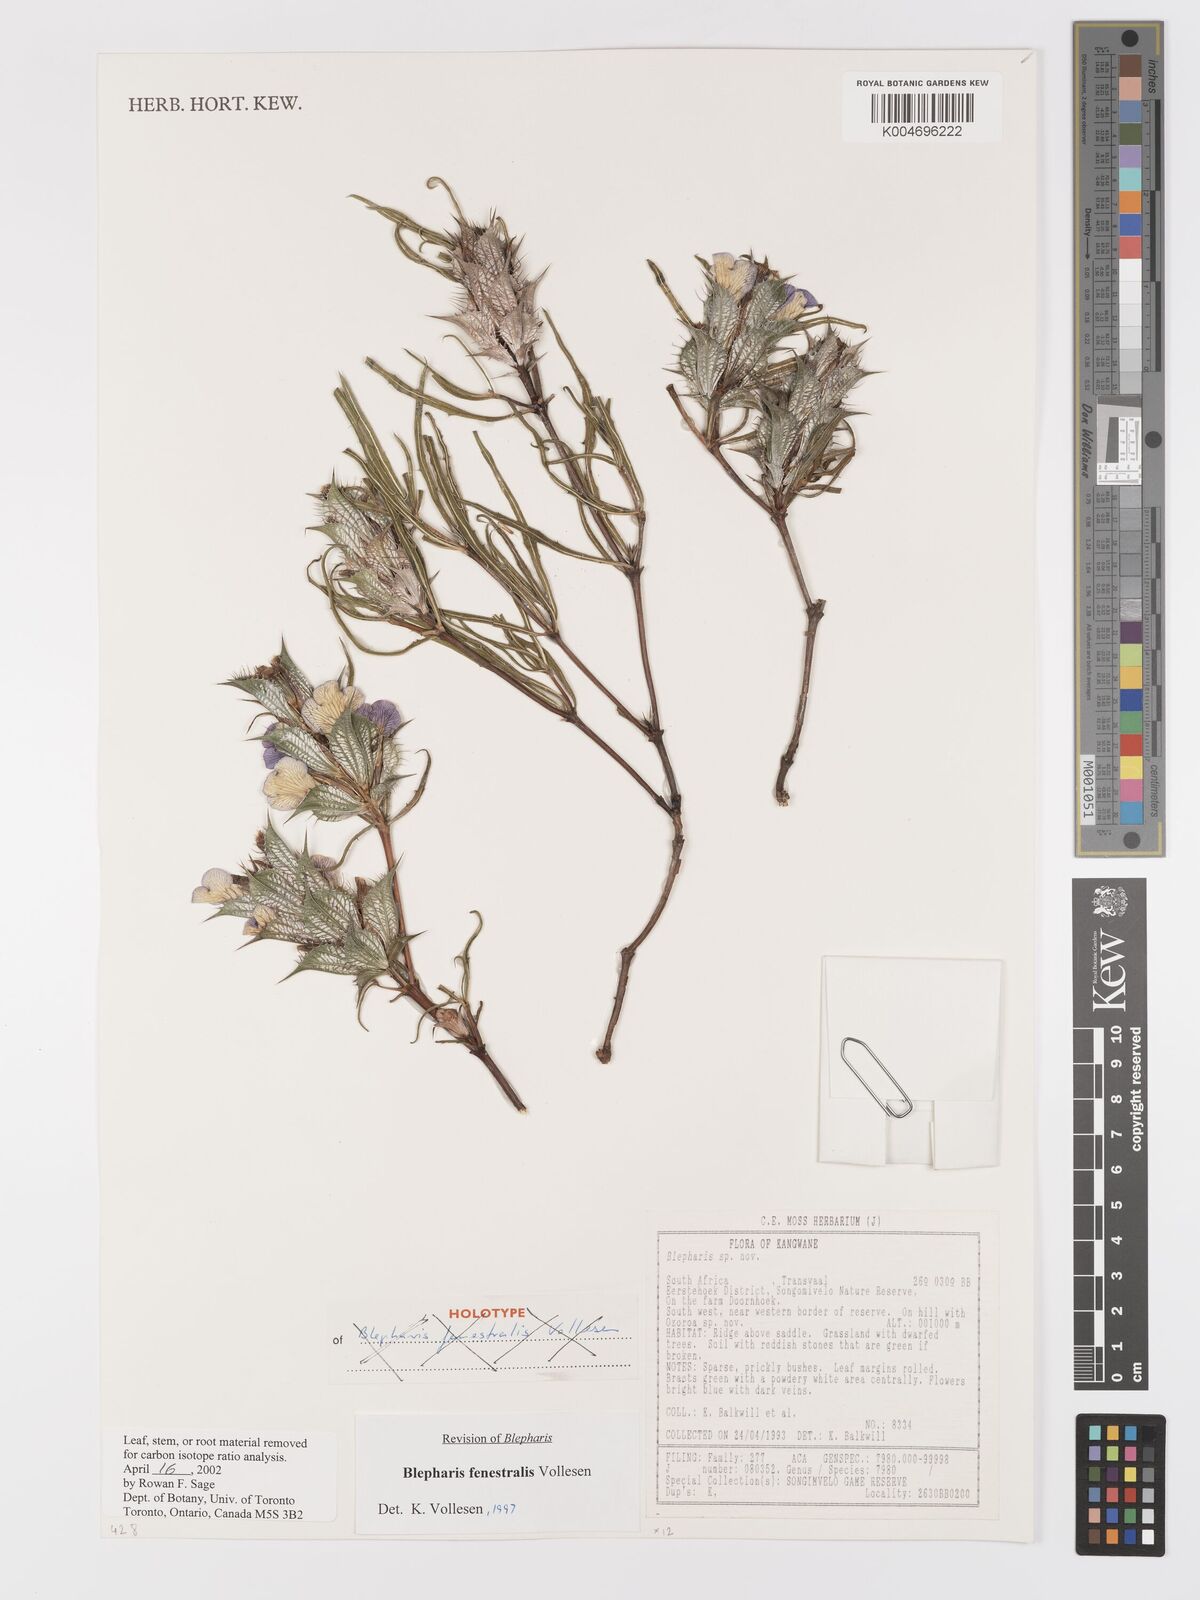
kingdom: Plantae
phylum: Tracheophyta
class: Magnoliopsida
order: Lamiales
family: Acanthaceae
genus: Blepharis
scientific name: Blepharis fenestralis
